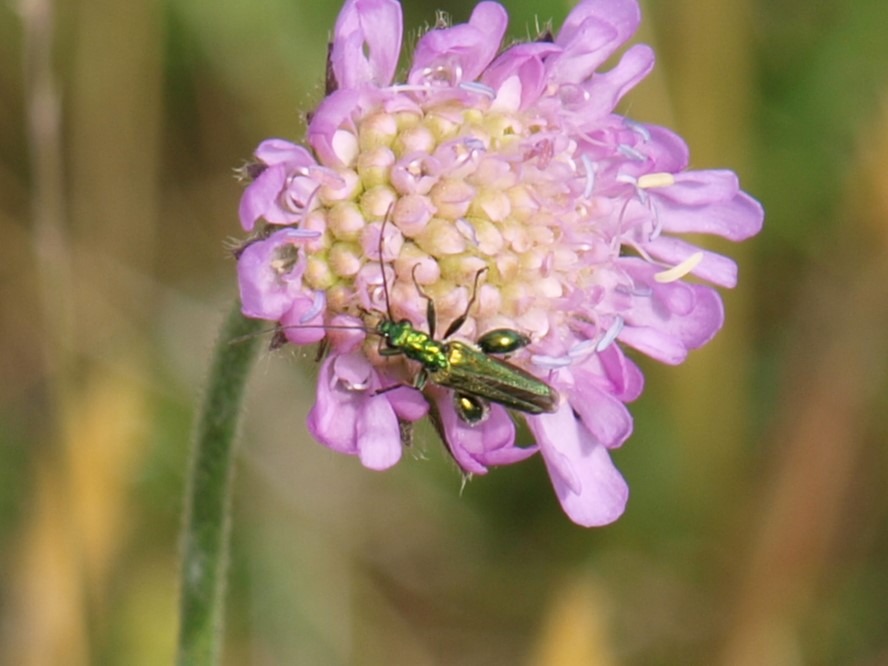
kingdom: Animalia
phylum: Arthropoda
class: Insecta
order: Coleoptera
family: Oedemeridae
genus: Oedemera
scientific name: Oedemera nobilis
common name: Tyklårssolbille
